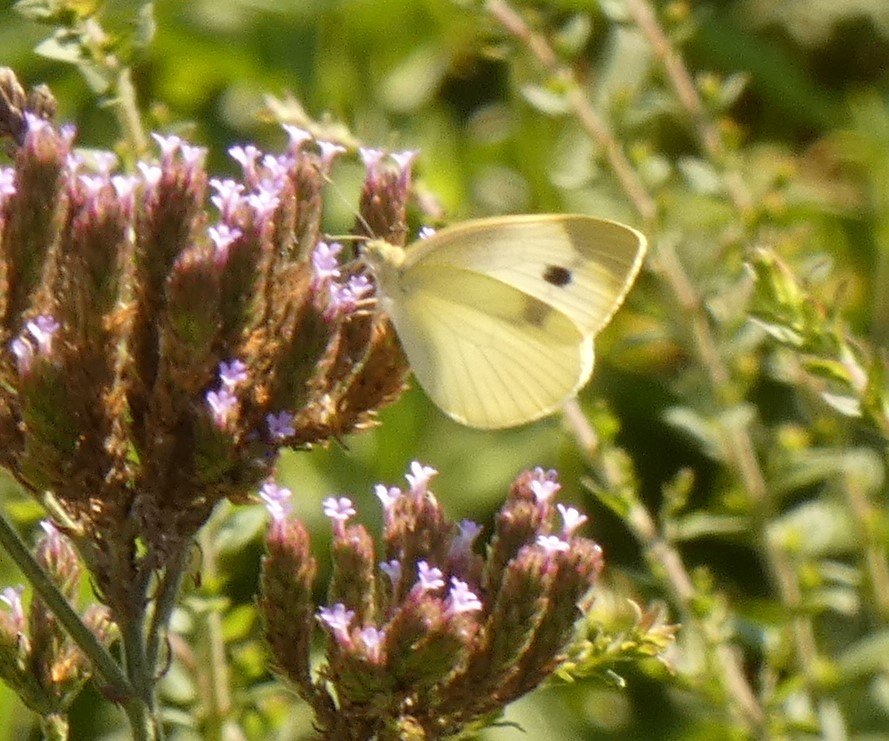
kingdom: Animalia
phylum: Arthropoda
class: Insecta
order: Lepidoptera
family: Pieridae
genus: Pieris
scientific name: Pieris rapae
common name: Cabbage White
